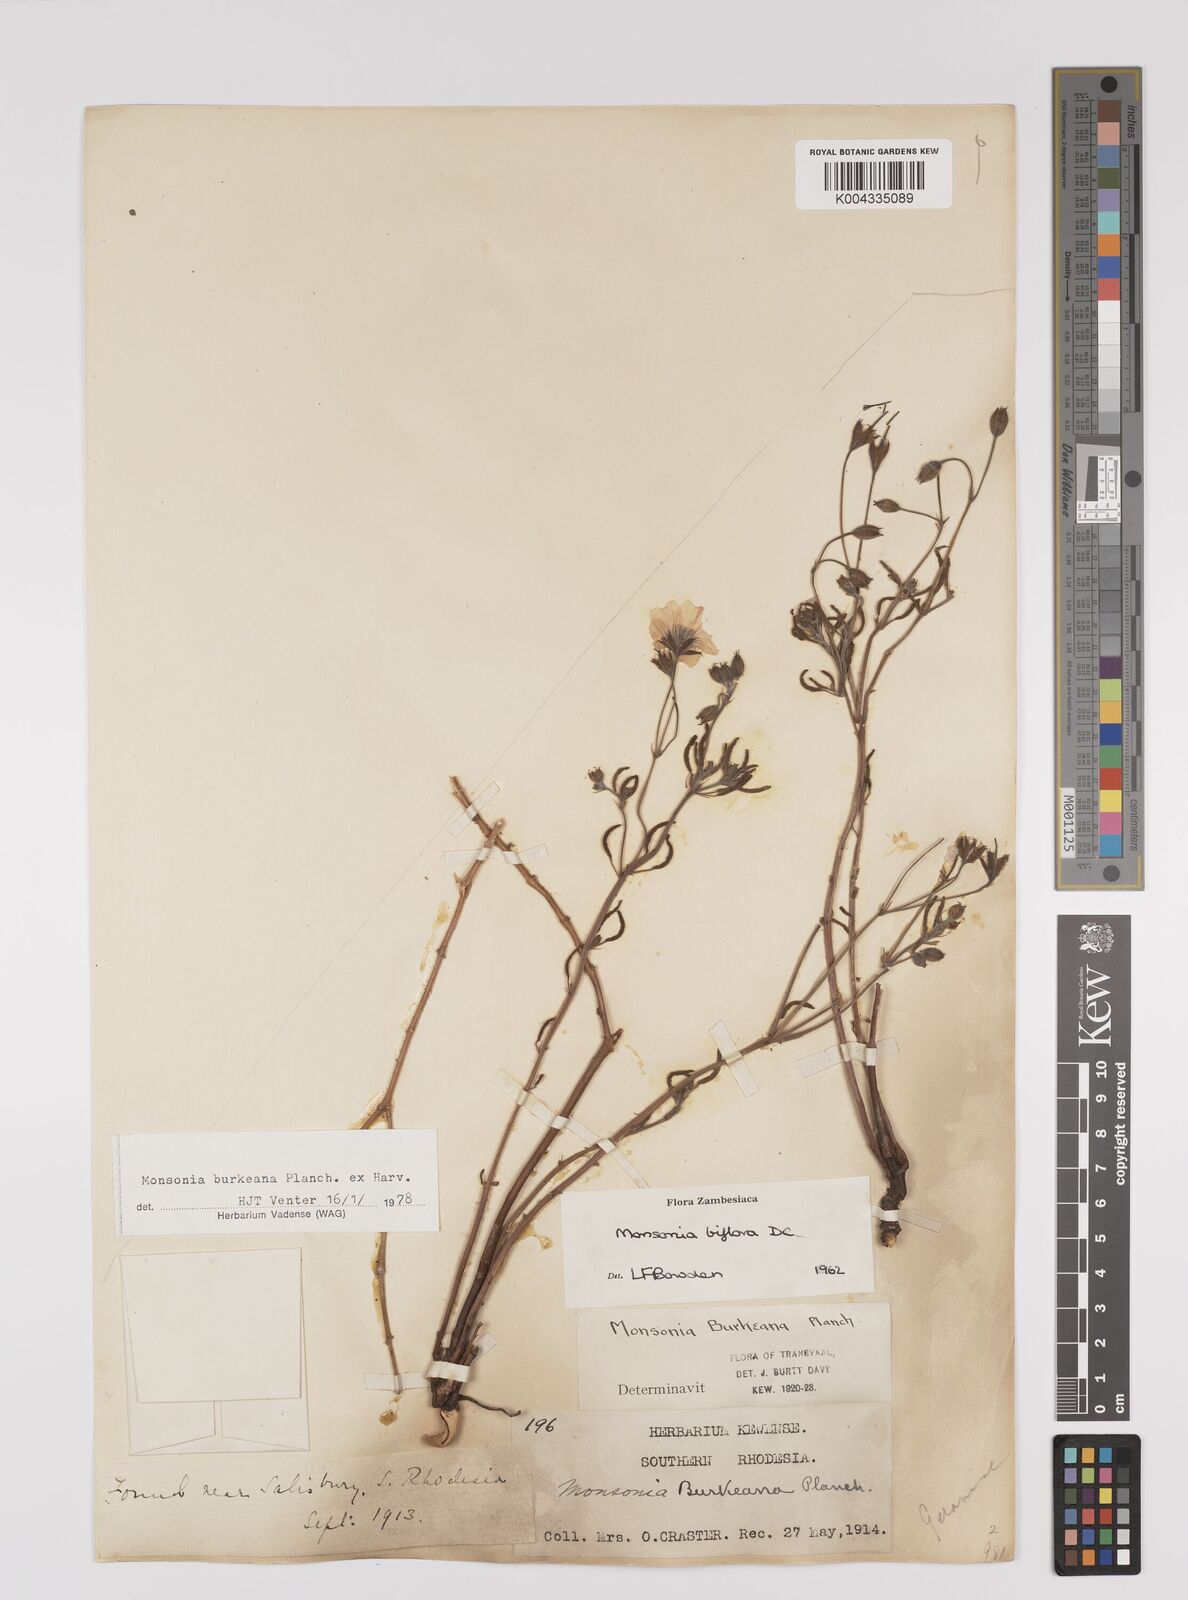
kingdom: Plantae
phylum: Tracheophyta
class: Magnoliopsida
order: Geraniales
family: Geraniaceae
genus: Monsonia
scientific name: Monsonia biflora
